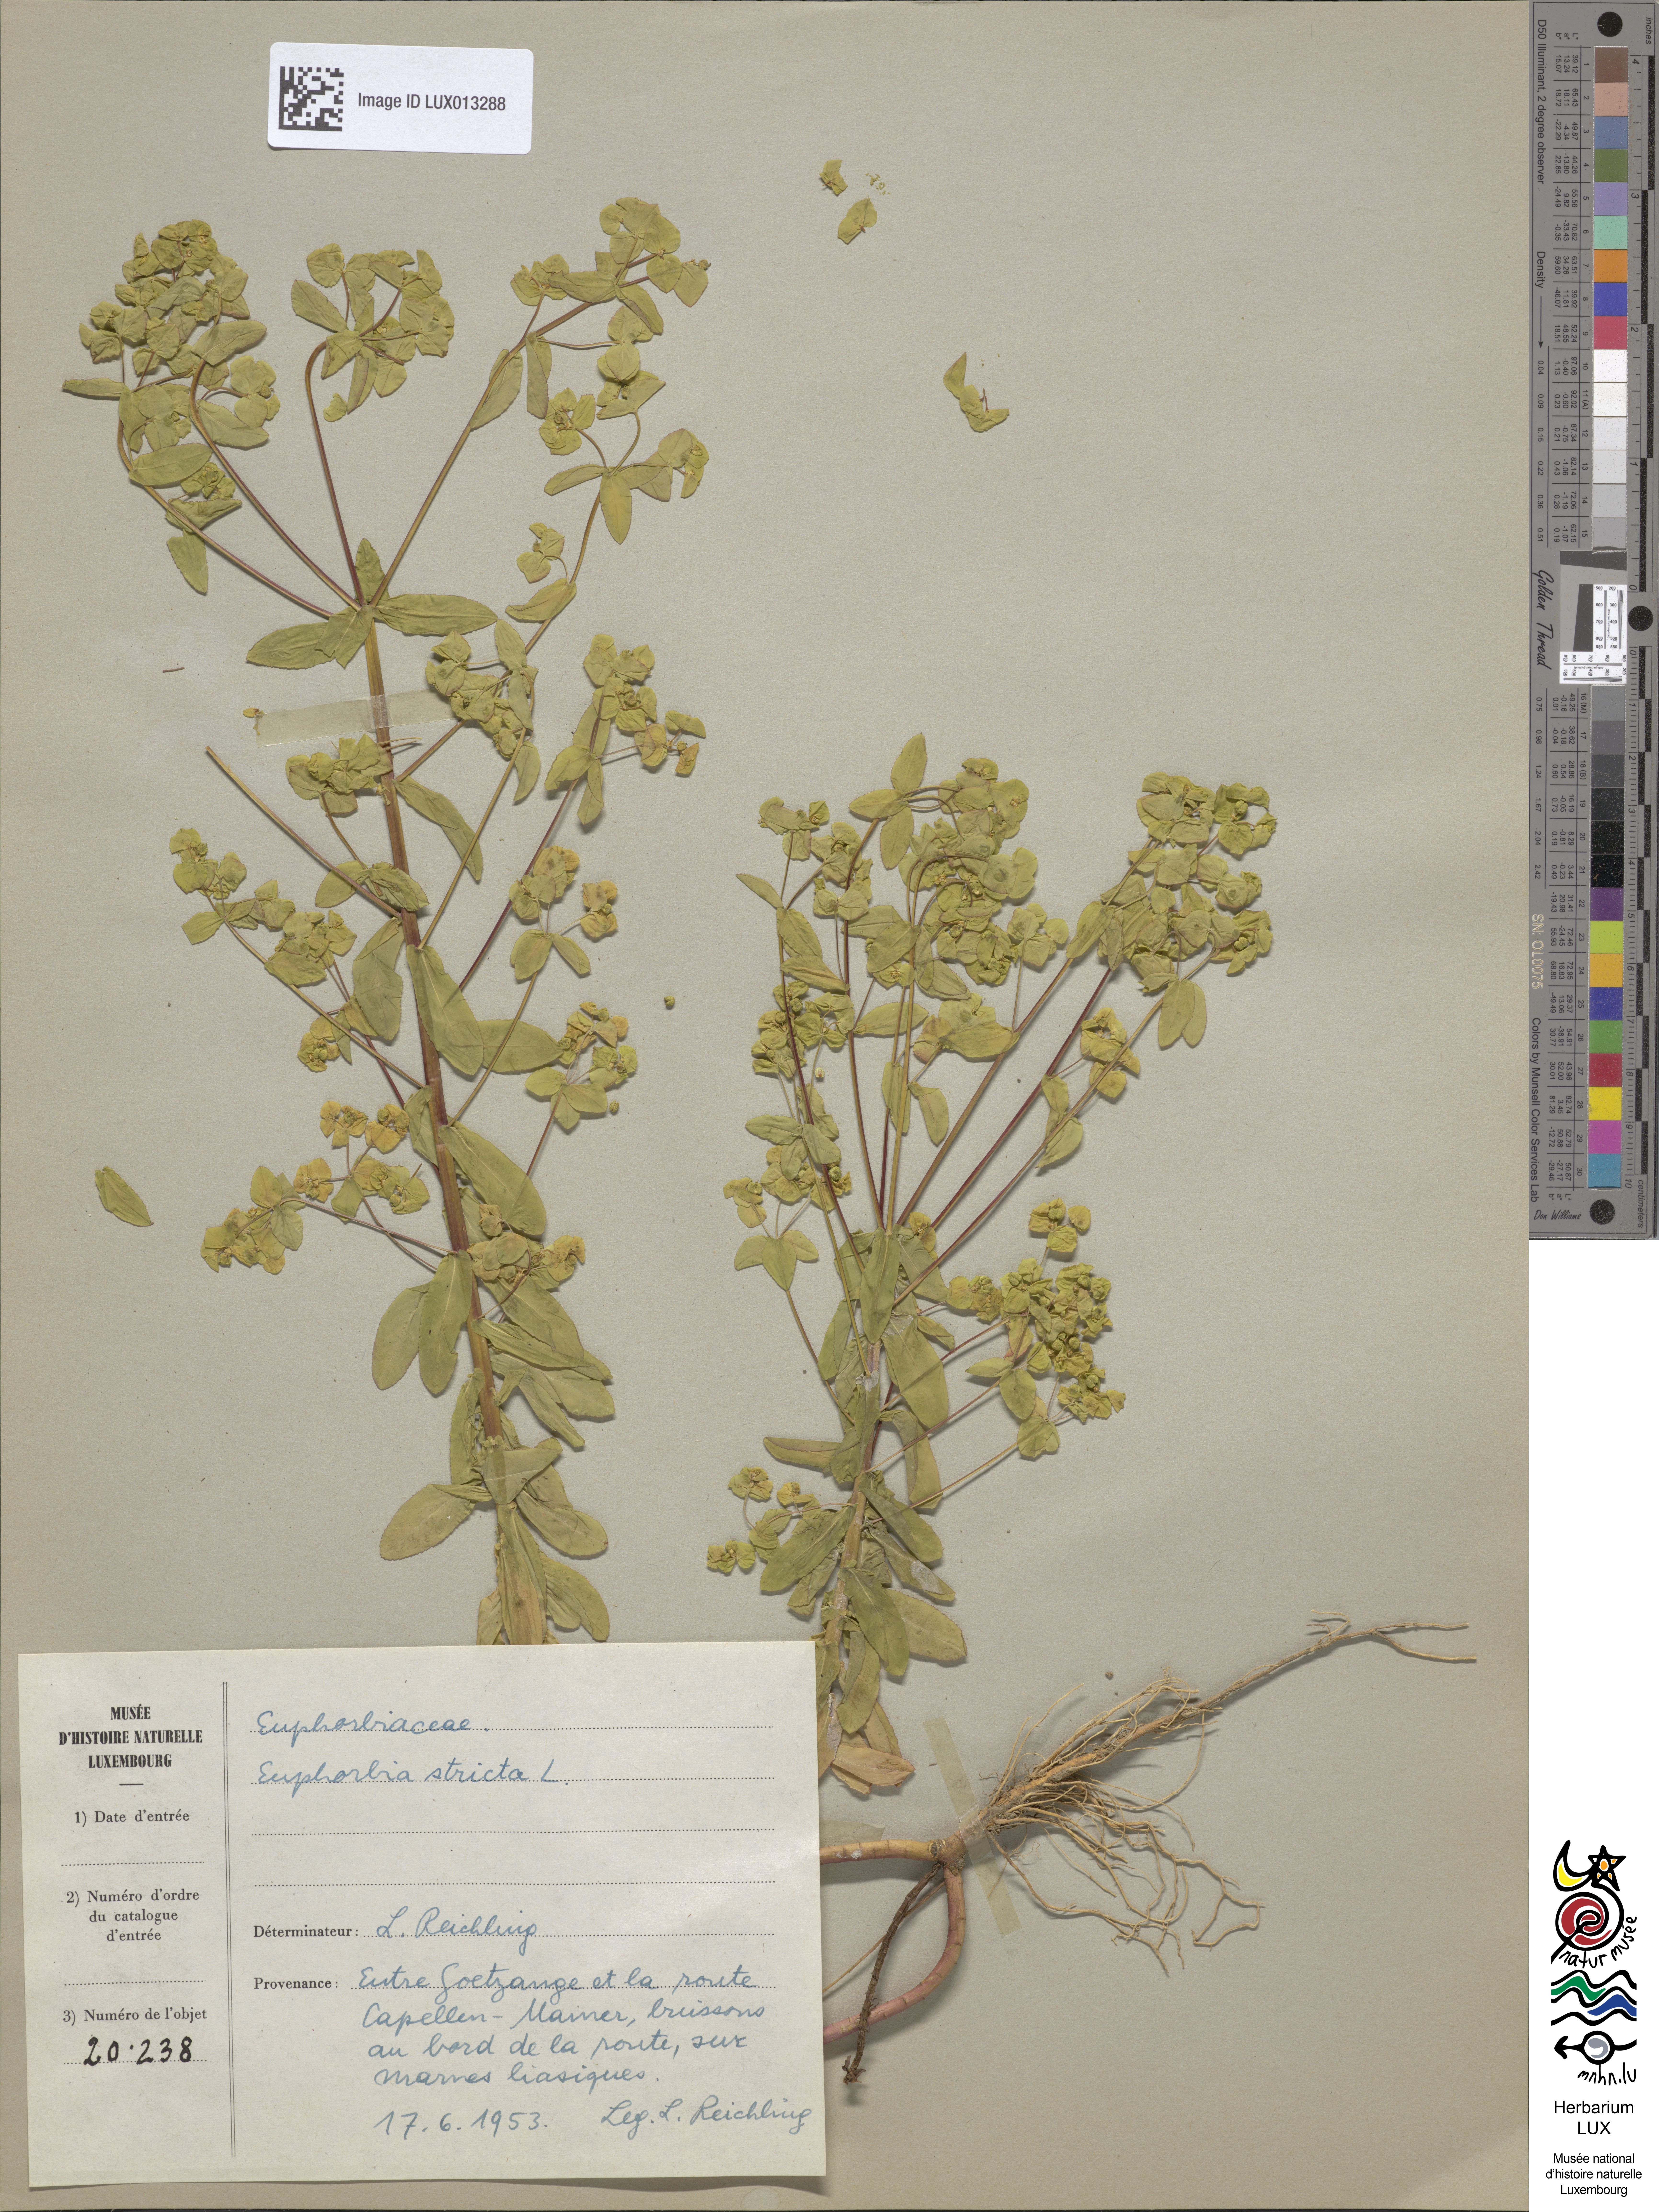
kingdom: Plantae
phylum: Tracheophyta
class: Magnoliopsida
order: Malpighiales
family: Euphorbiaceae
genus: Euphorbia
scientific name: Euphorbia stricta
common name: Upright spurge
